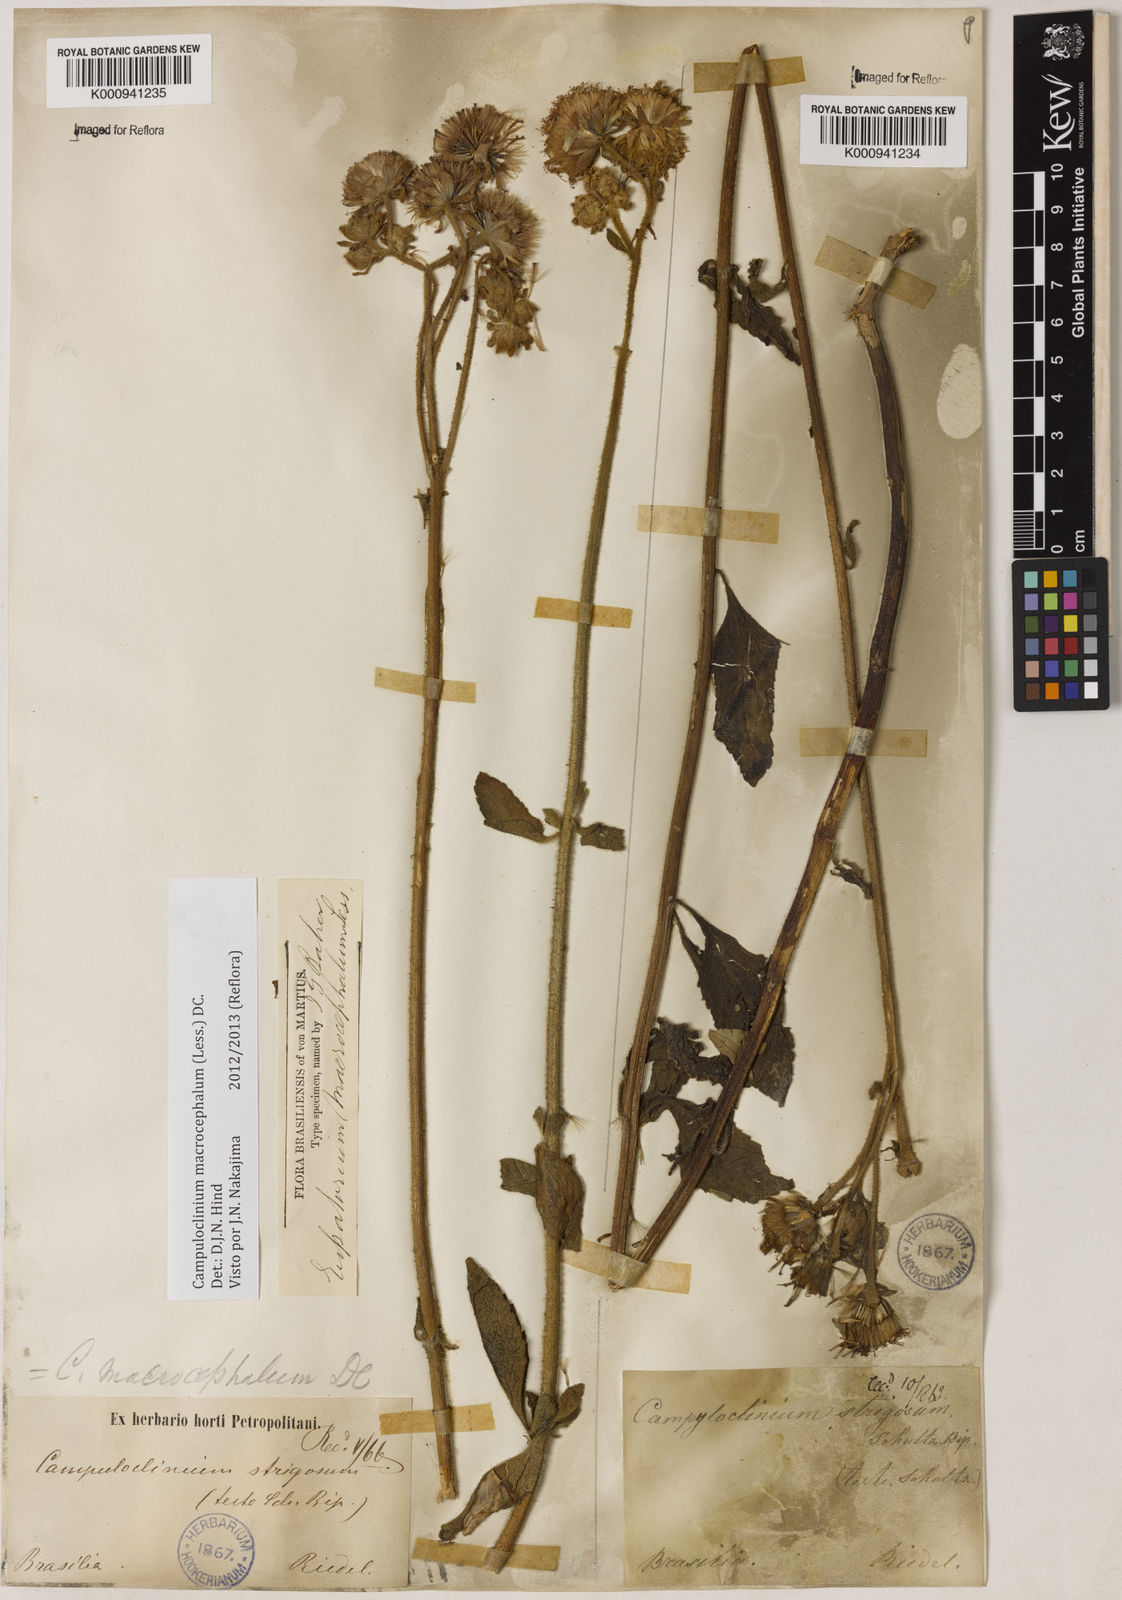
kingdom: Plantae
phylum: Tracheophyta
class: Magnoliopsida
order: Asterales
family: Asteraceae
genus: Campuloclinium
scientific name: Campuloclinium macrocephalum
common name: Pompomweed
